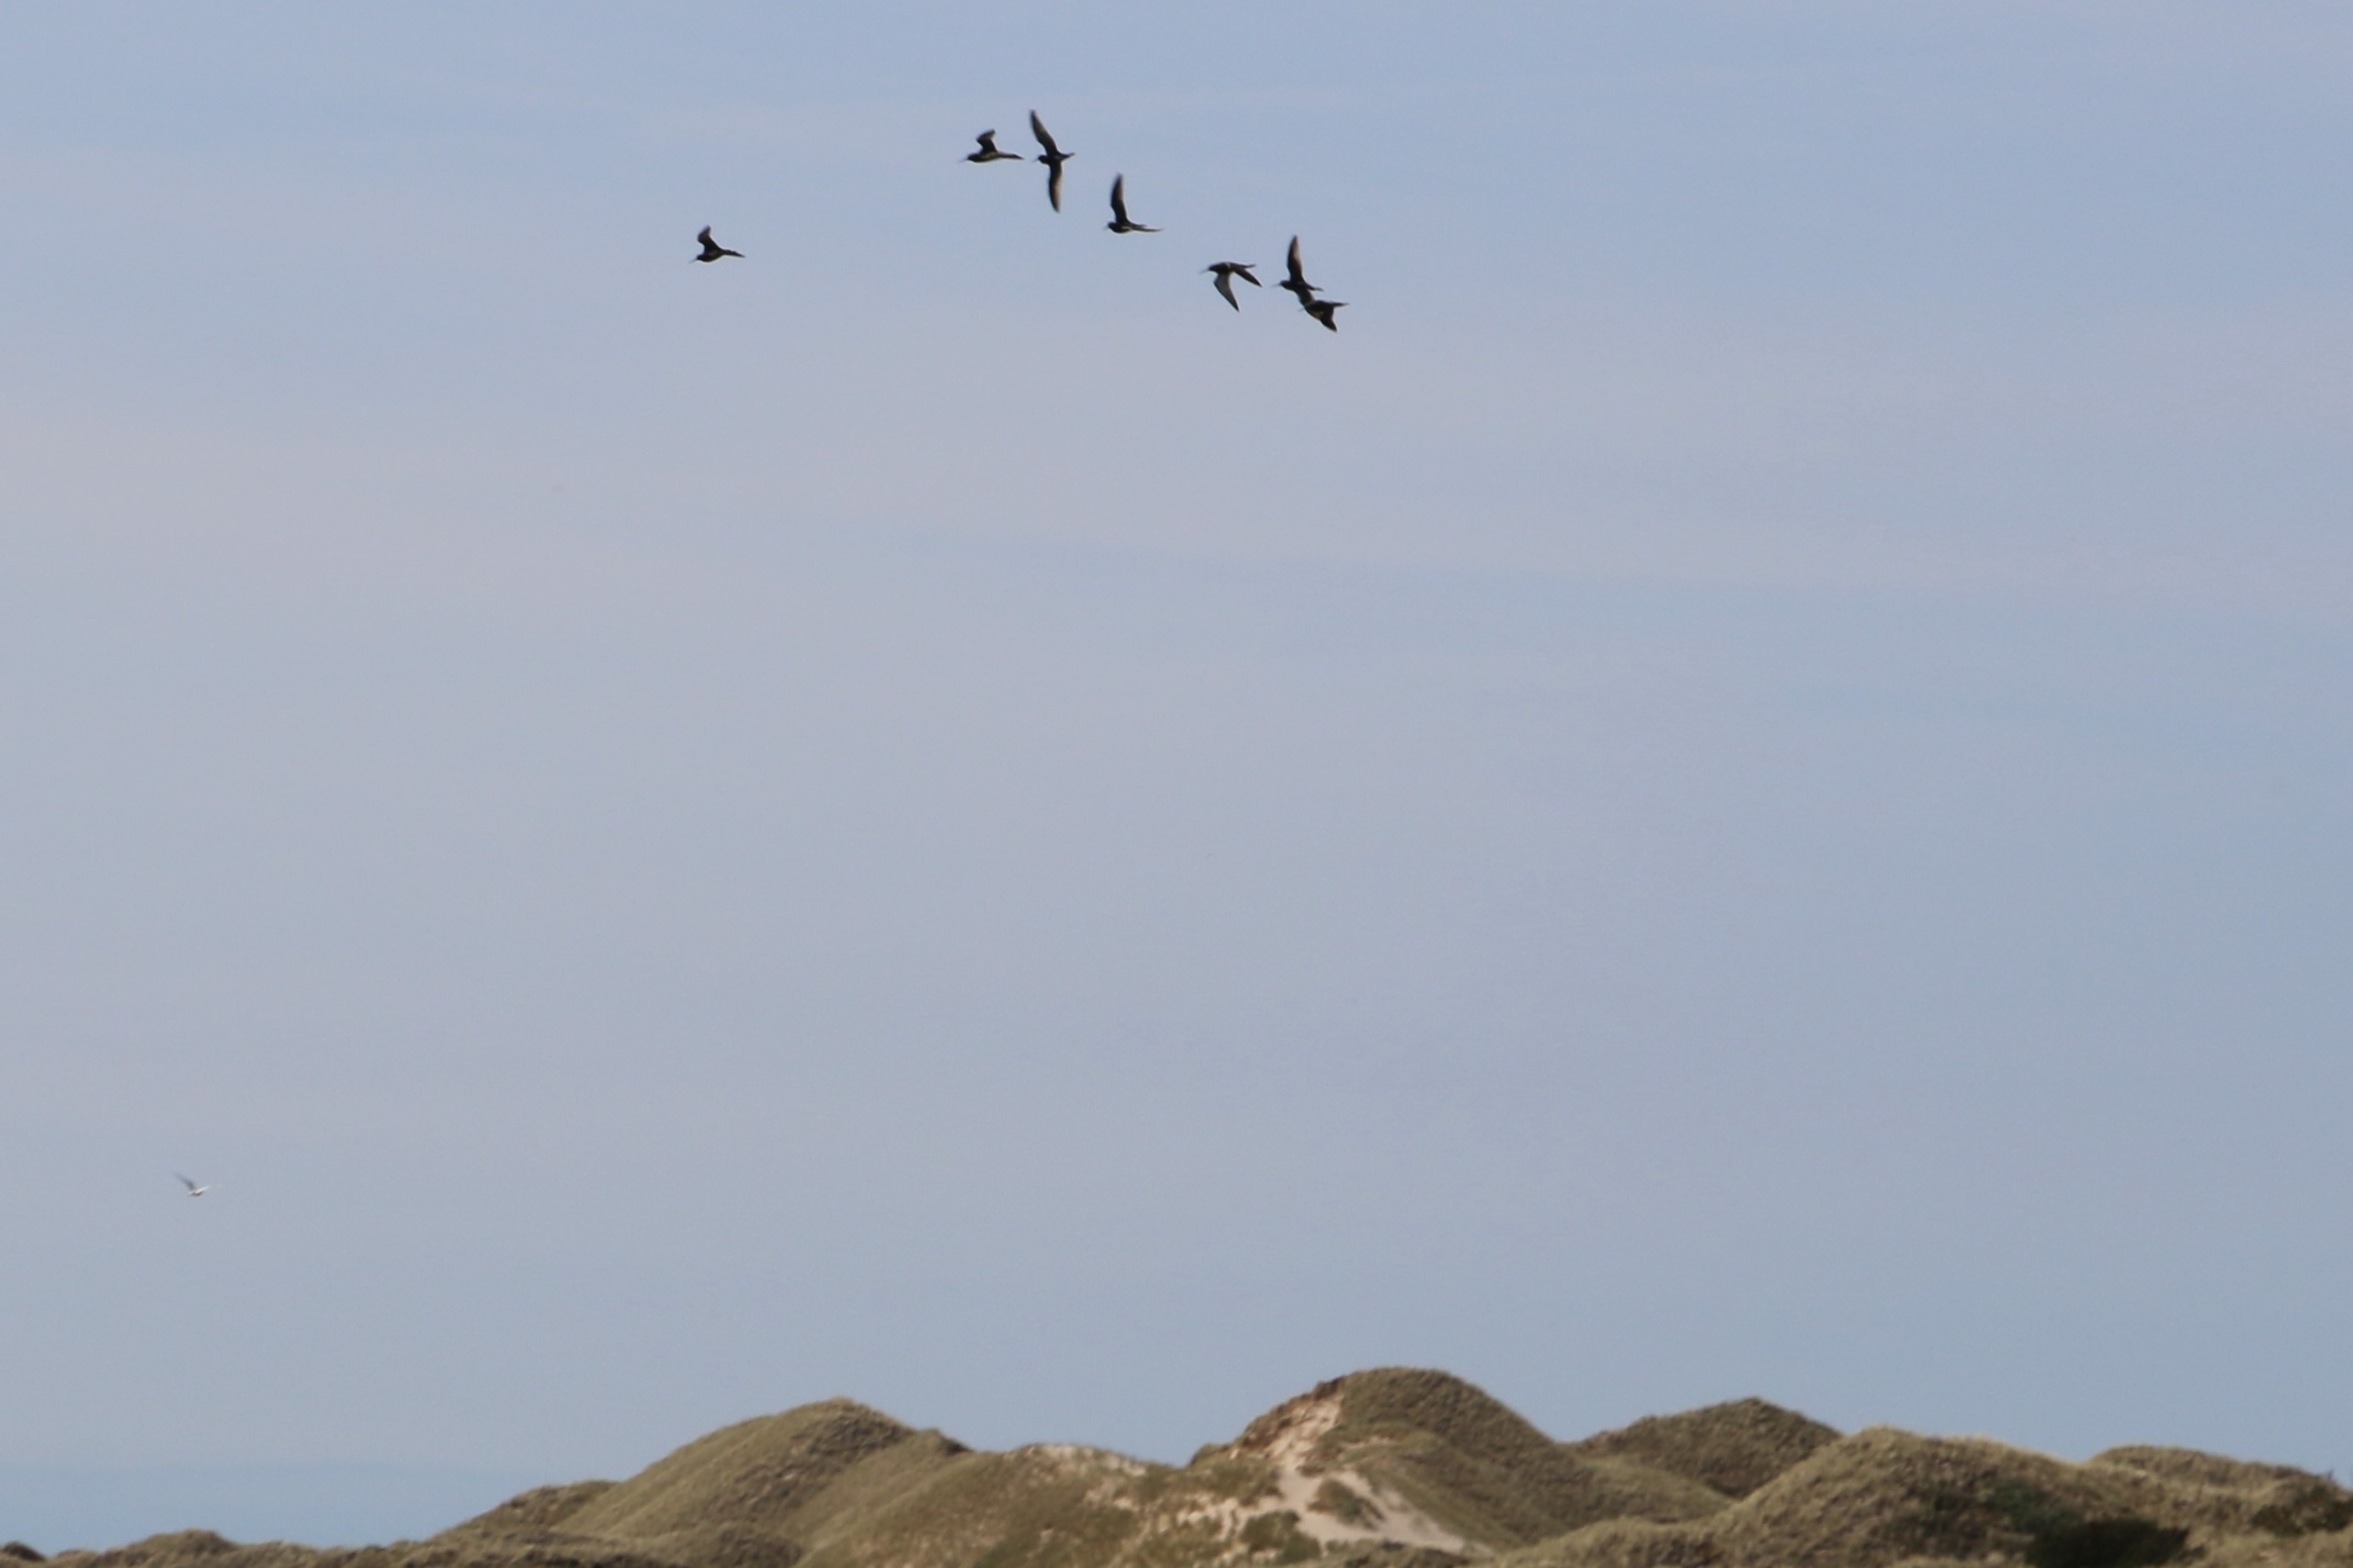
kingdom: Animalia
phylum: Chordata
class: Aves
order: Charadriiformes
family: Scolopacidae
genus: Tringa
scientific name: Tringa erythropus
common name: Sortklire
